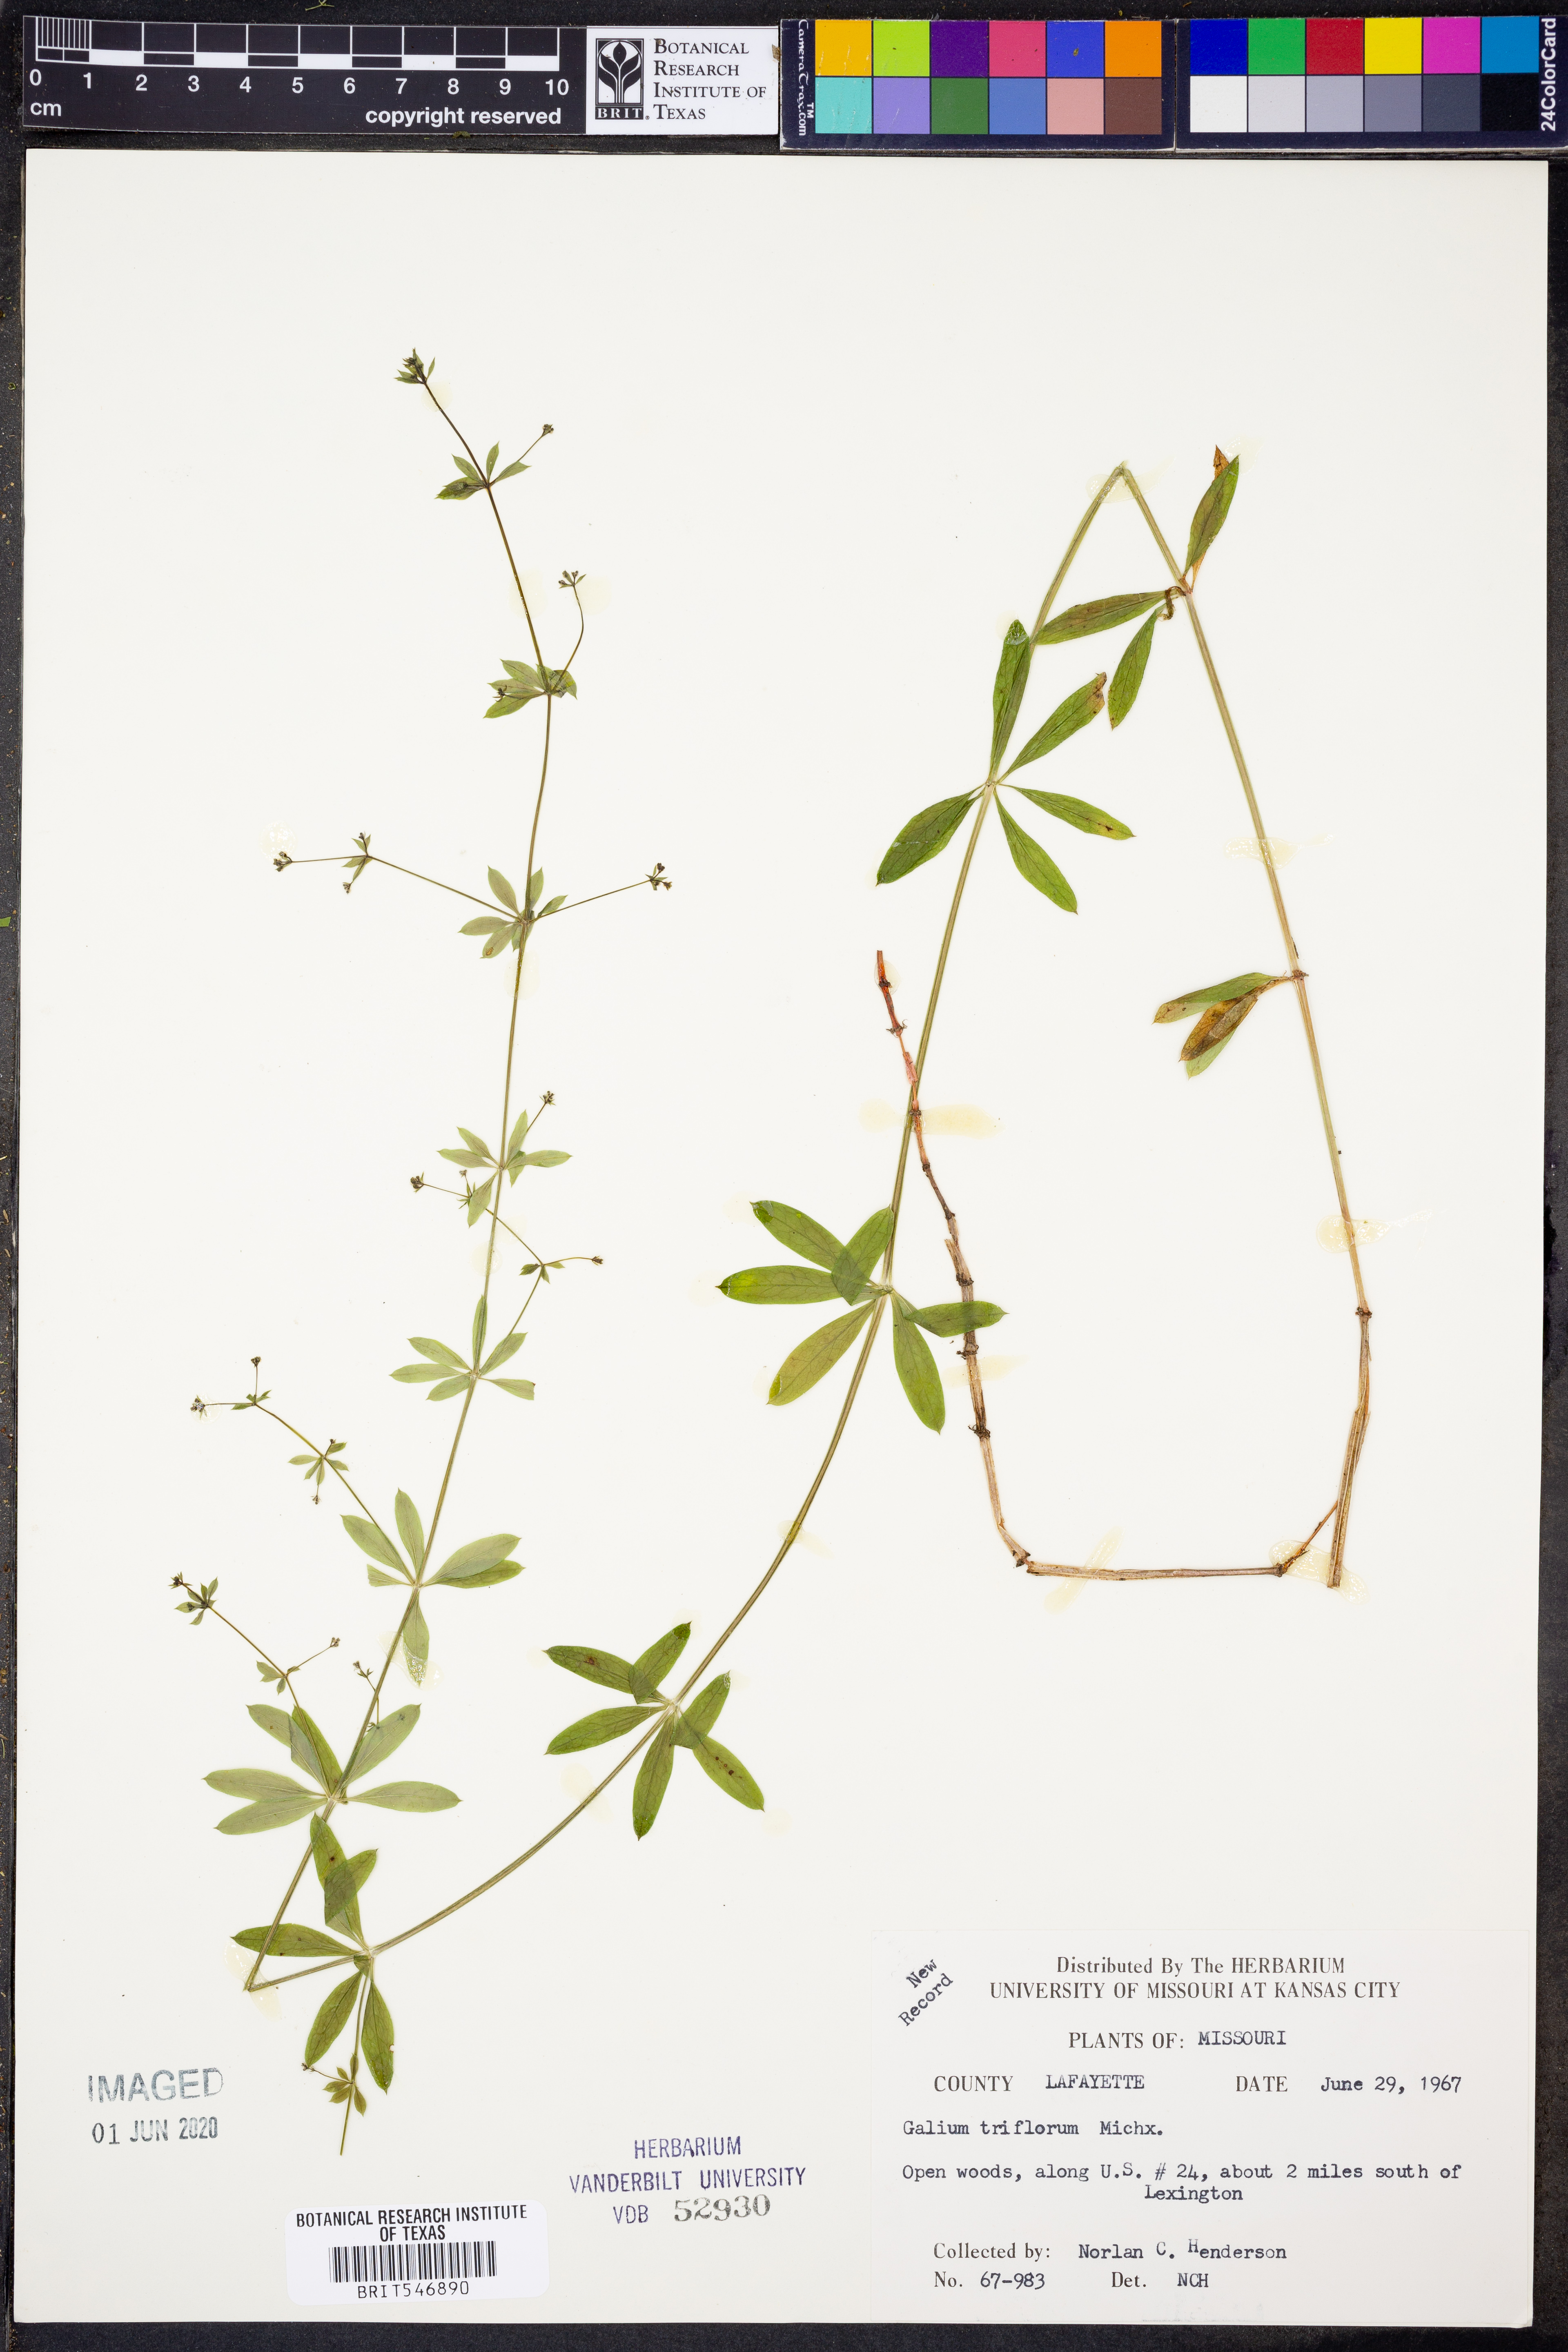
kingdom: Plantae
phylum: Tracheophyta
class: Magnoliopsida
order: Gentianales
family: Rubiaceae
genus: Galium
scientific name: Galium triflorum
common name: Fragrant bedstraw
